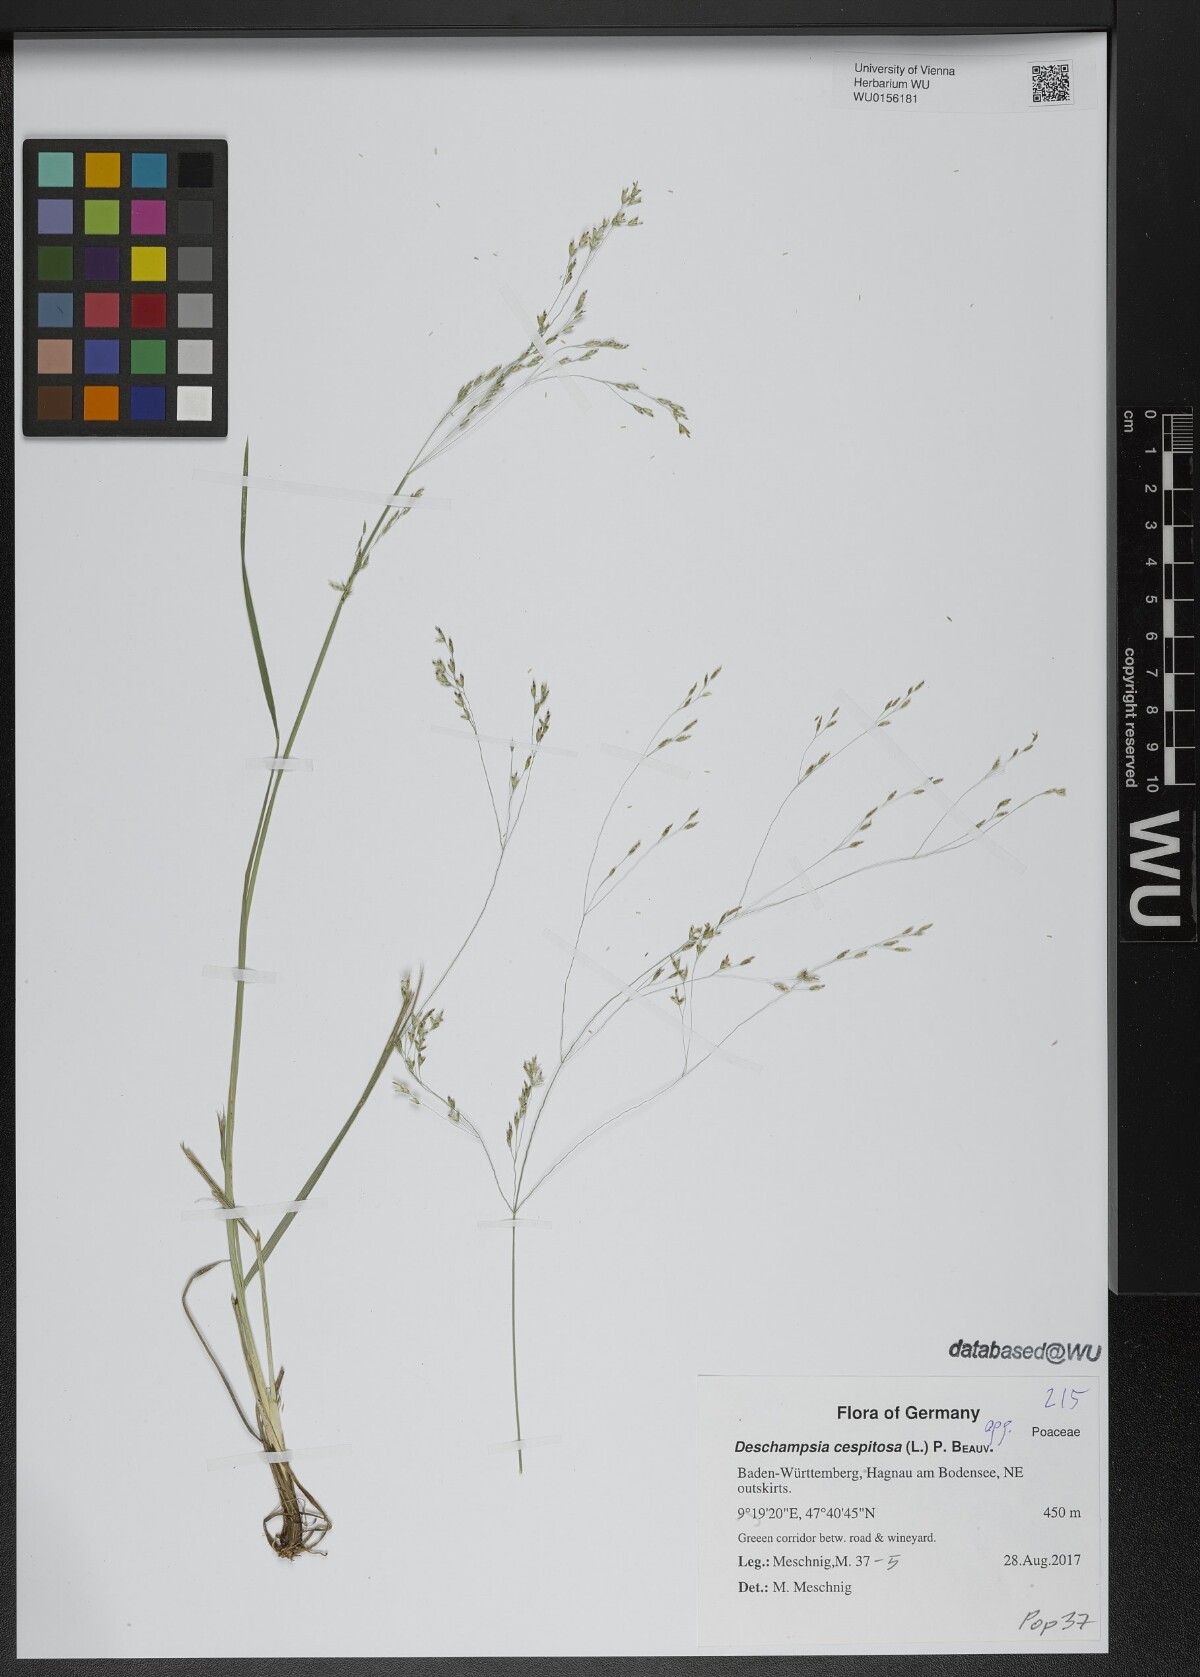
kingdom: Plantae
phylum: Tracheophyta
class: Liliopsida
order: Poales
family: Poaceae
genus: Deschampsia
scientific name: Deschampsia cespitosa
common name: Tufted hair-grass
